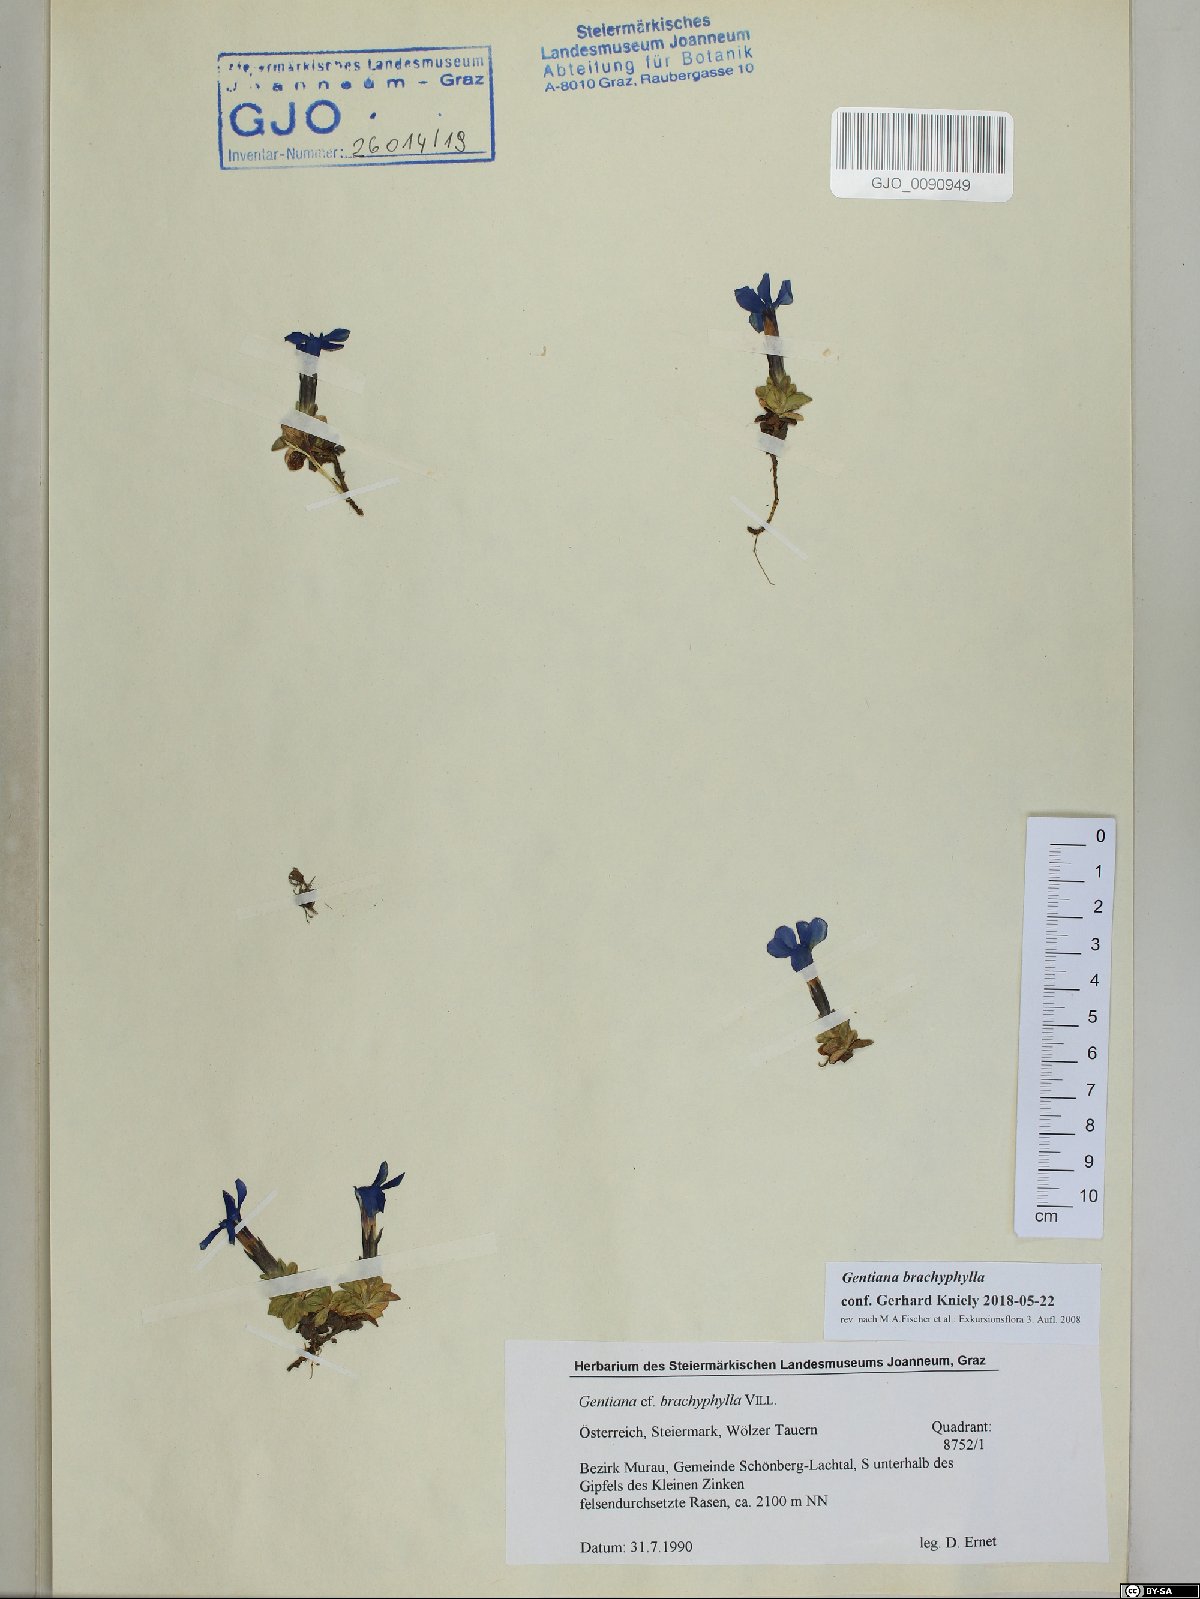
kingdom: Plantae
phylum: Tracheophyta
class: Magnoliopsida
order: Gentianales
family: Gentianaceae
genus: Gentiana
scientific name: Gentiana brachyphylla
